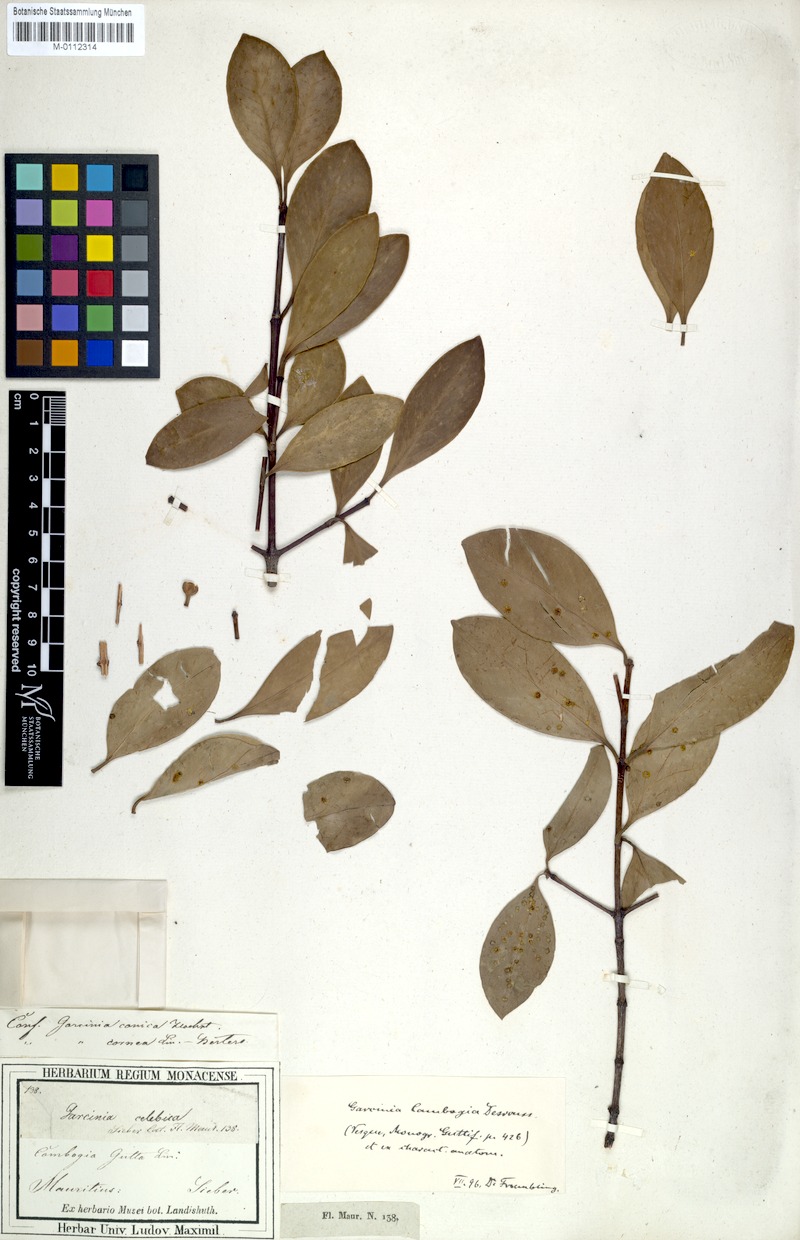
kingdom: Plantae
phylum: Tracheophyta
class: Magnoliopsida
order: Malpighiales
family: Clusiaceae
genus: Garcinia
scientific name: Garcinia celebica
